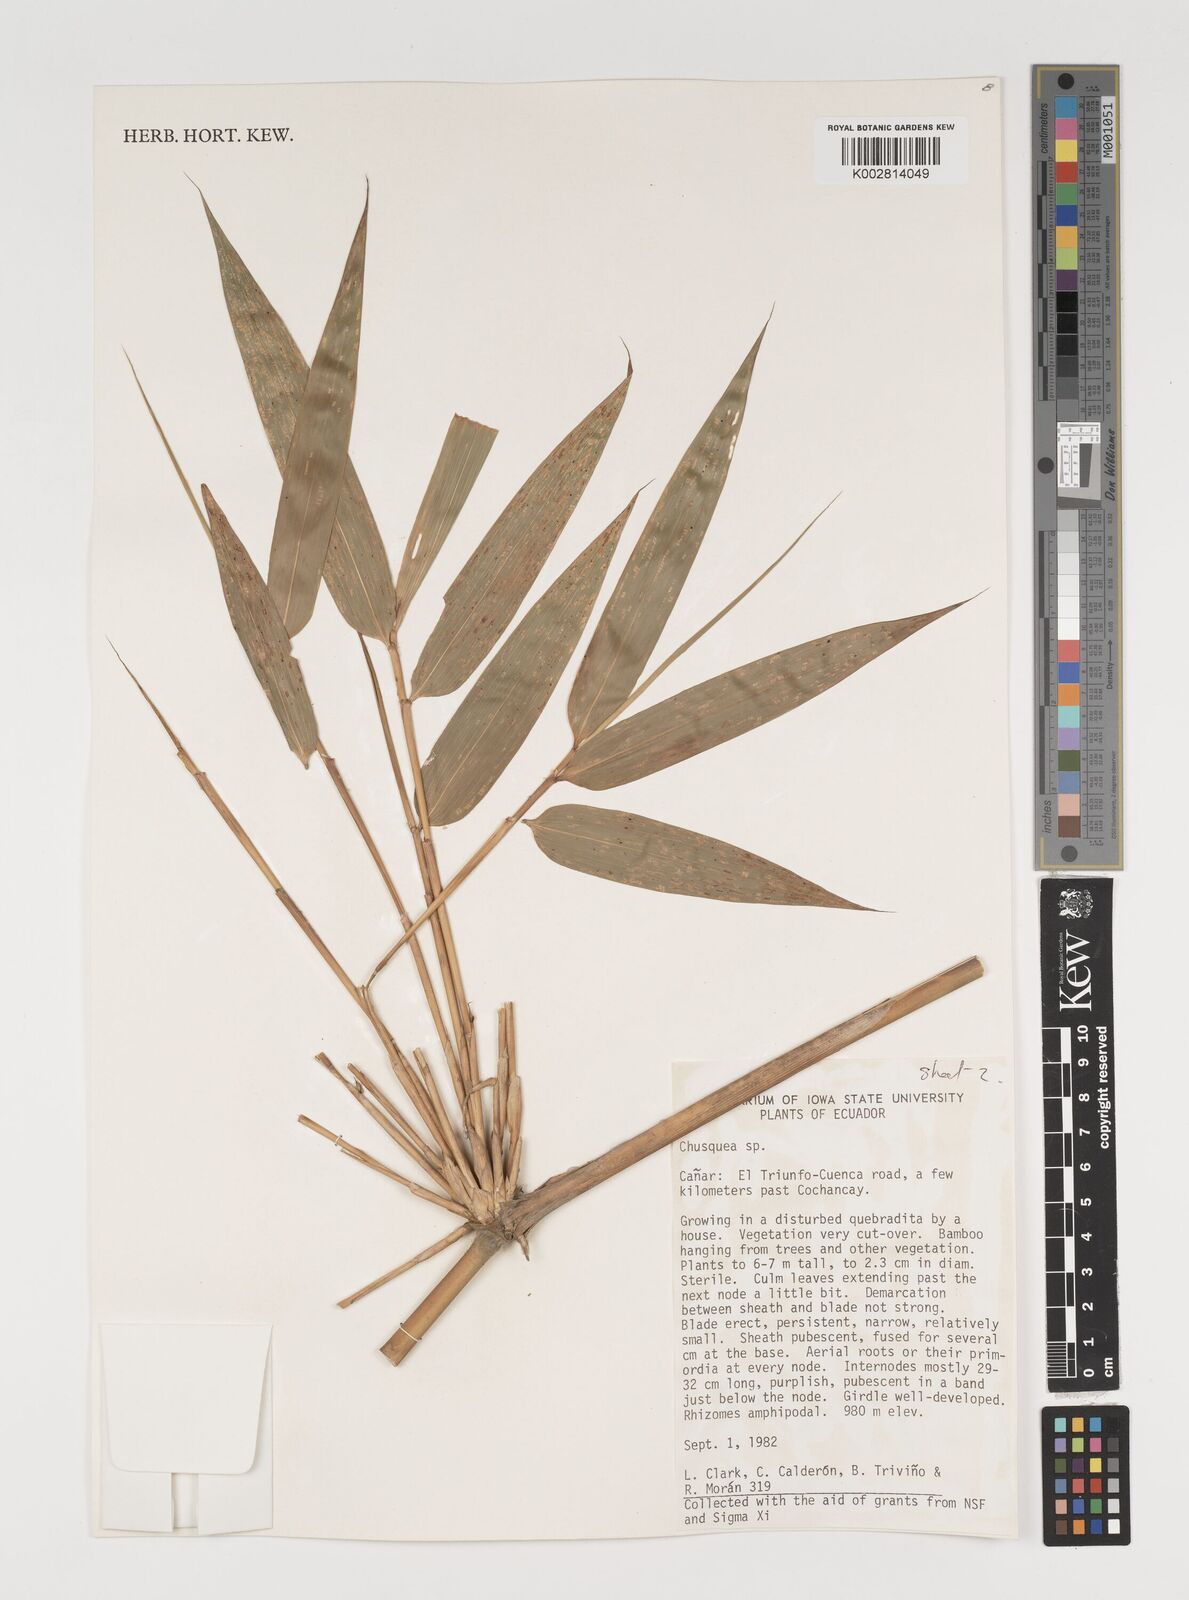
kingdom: Plantae
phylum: Tracheophyta
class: Liliopsida
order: Poales
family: Poaceae
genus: Chusquea
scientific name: Chusquea
